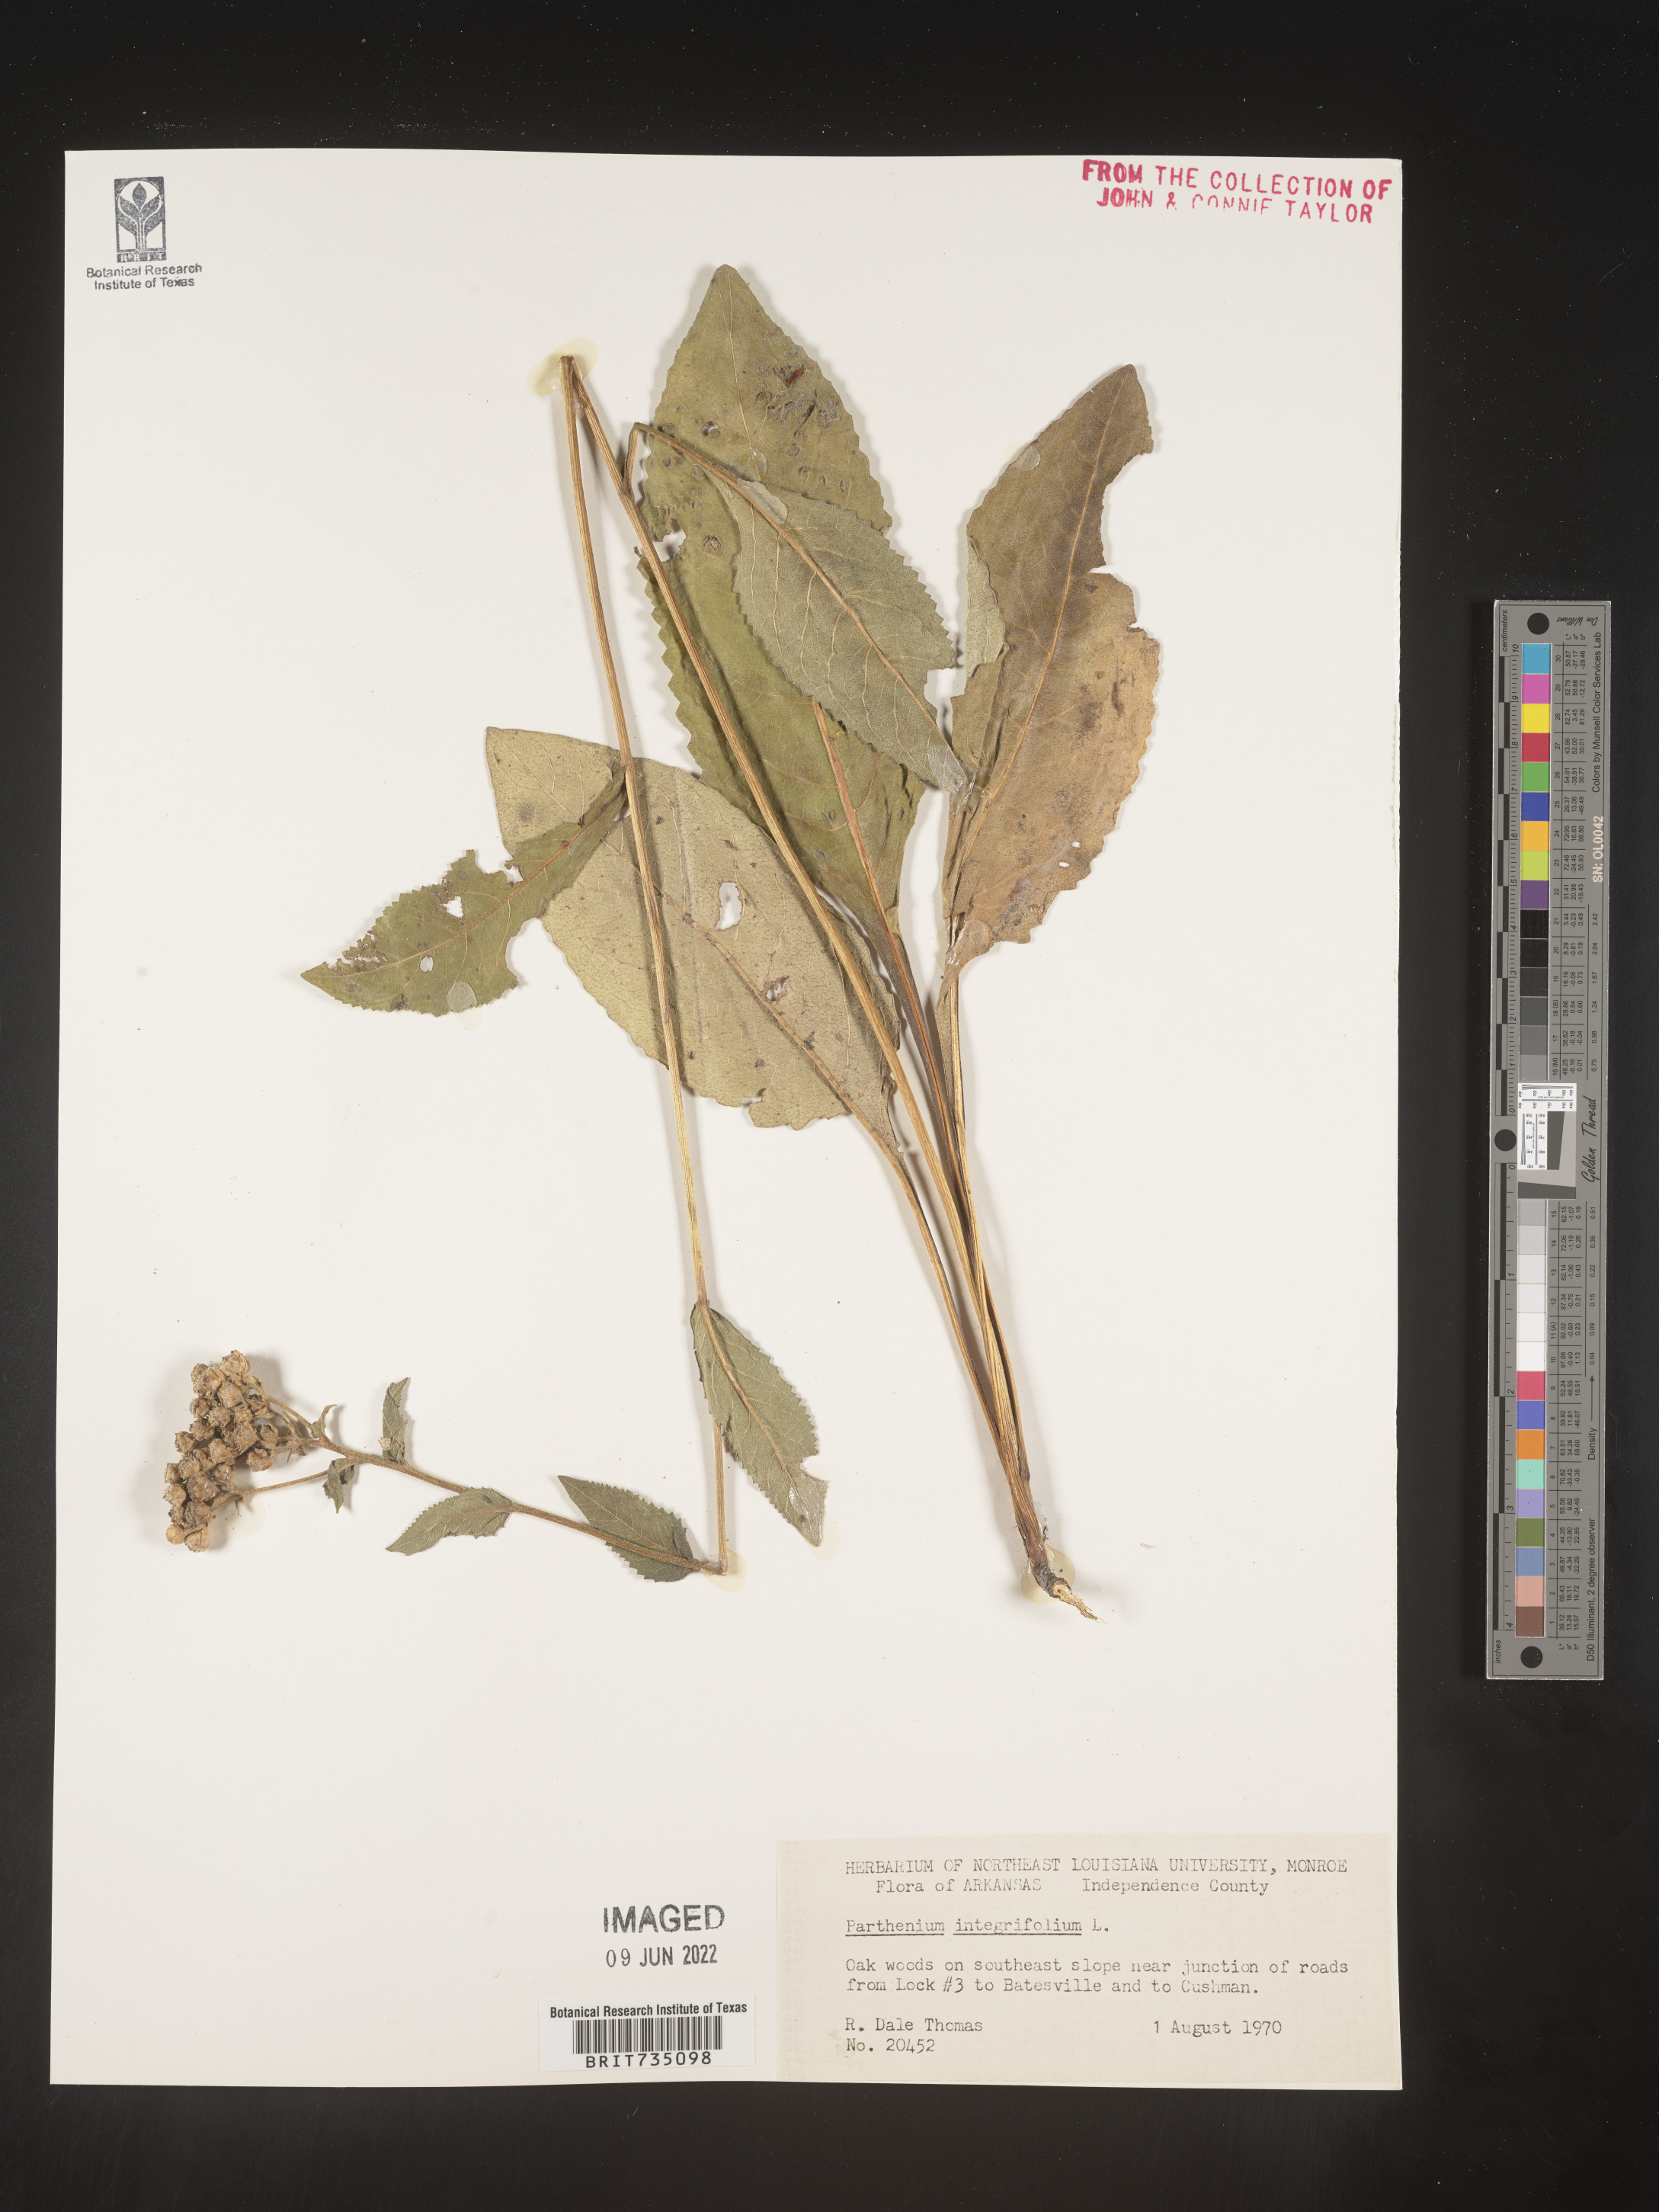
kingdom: Plantae
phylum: Tracheophyta
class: Magnoliopsida
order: Asterales
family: Asteraceae
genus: Parthenium
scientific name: Parthenium integrifolium
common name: American feverfew
